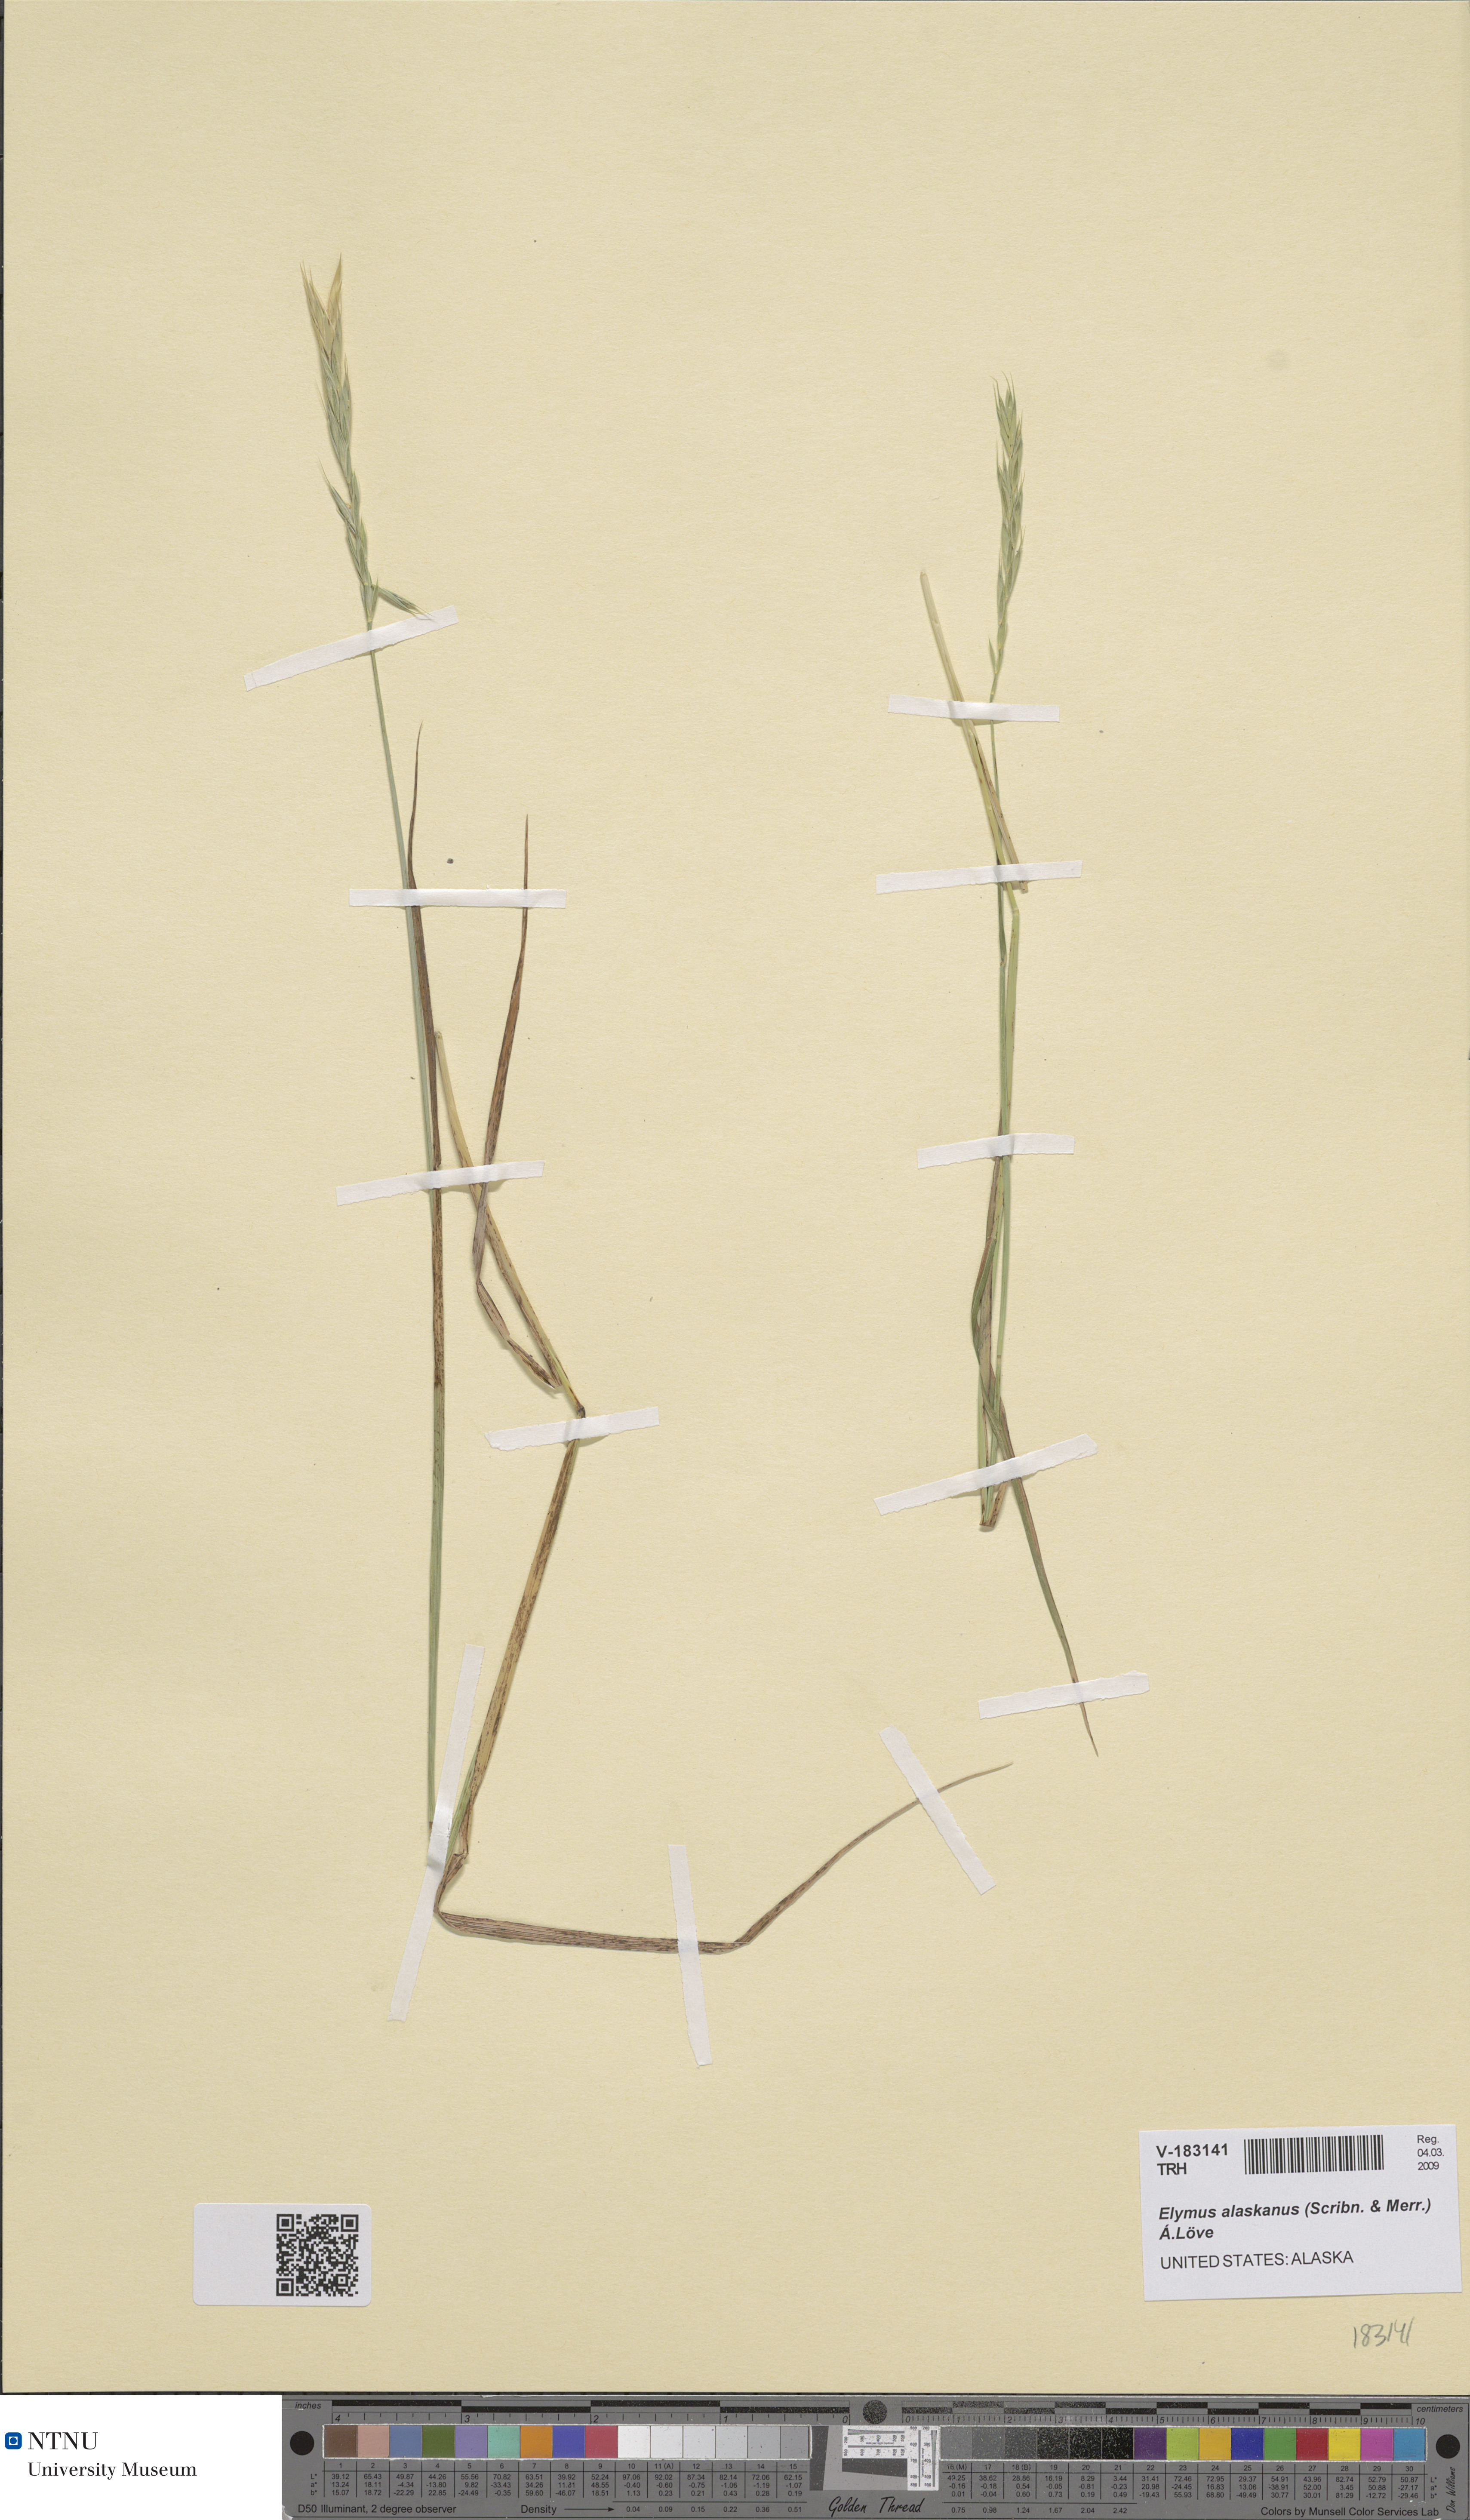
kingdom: Plantae
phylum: Tracheophyta
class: Liliopsida
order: Poales
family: Poaceae
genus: Elymus
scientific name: Elymus alaskanus
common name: Alaska wheatgrass
